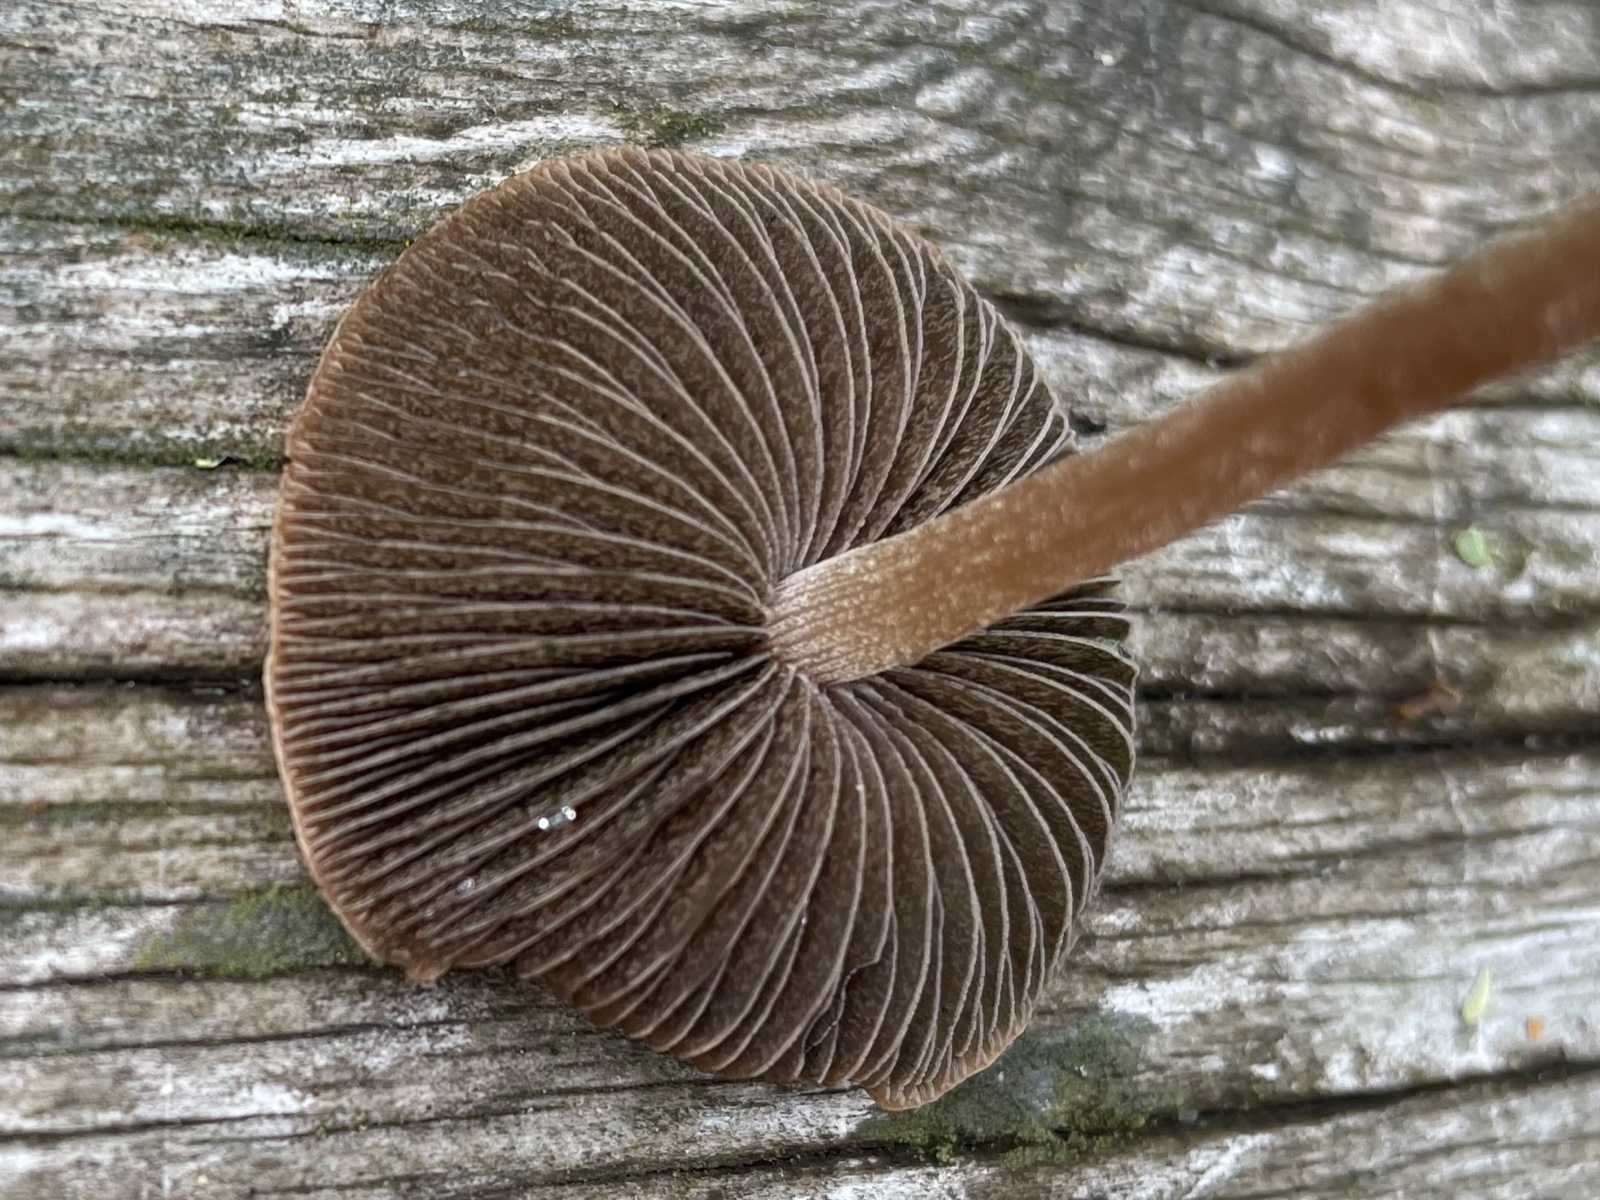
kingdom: Fungi
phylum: Basidiomycota
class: Agaricomycetes
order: Agaricales
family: Bolbitiaceae
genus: Panaeolus
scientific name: Panaeolus
